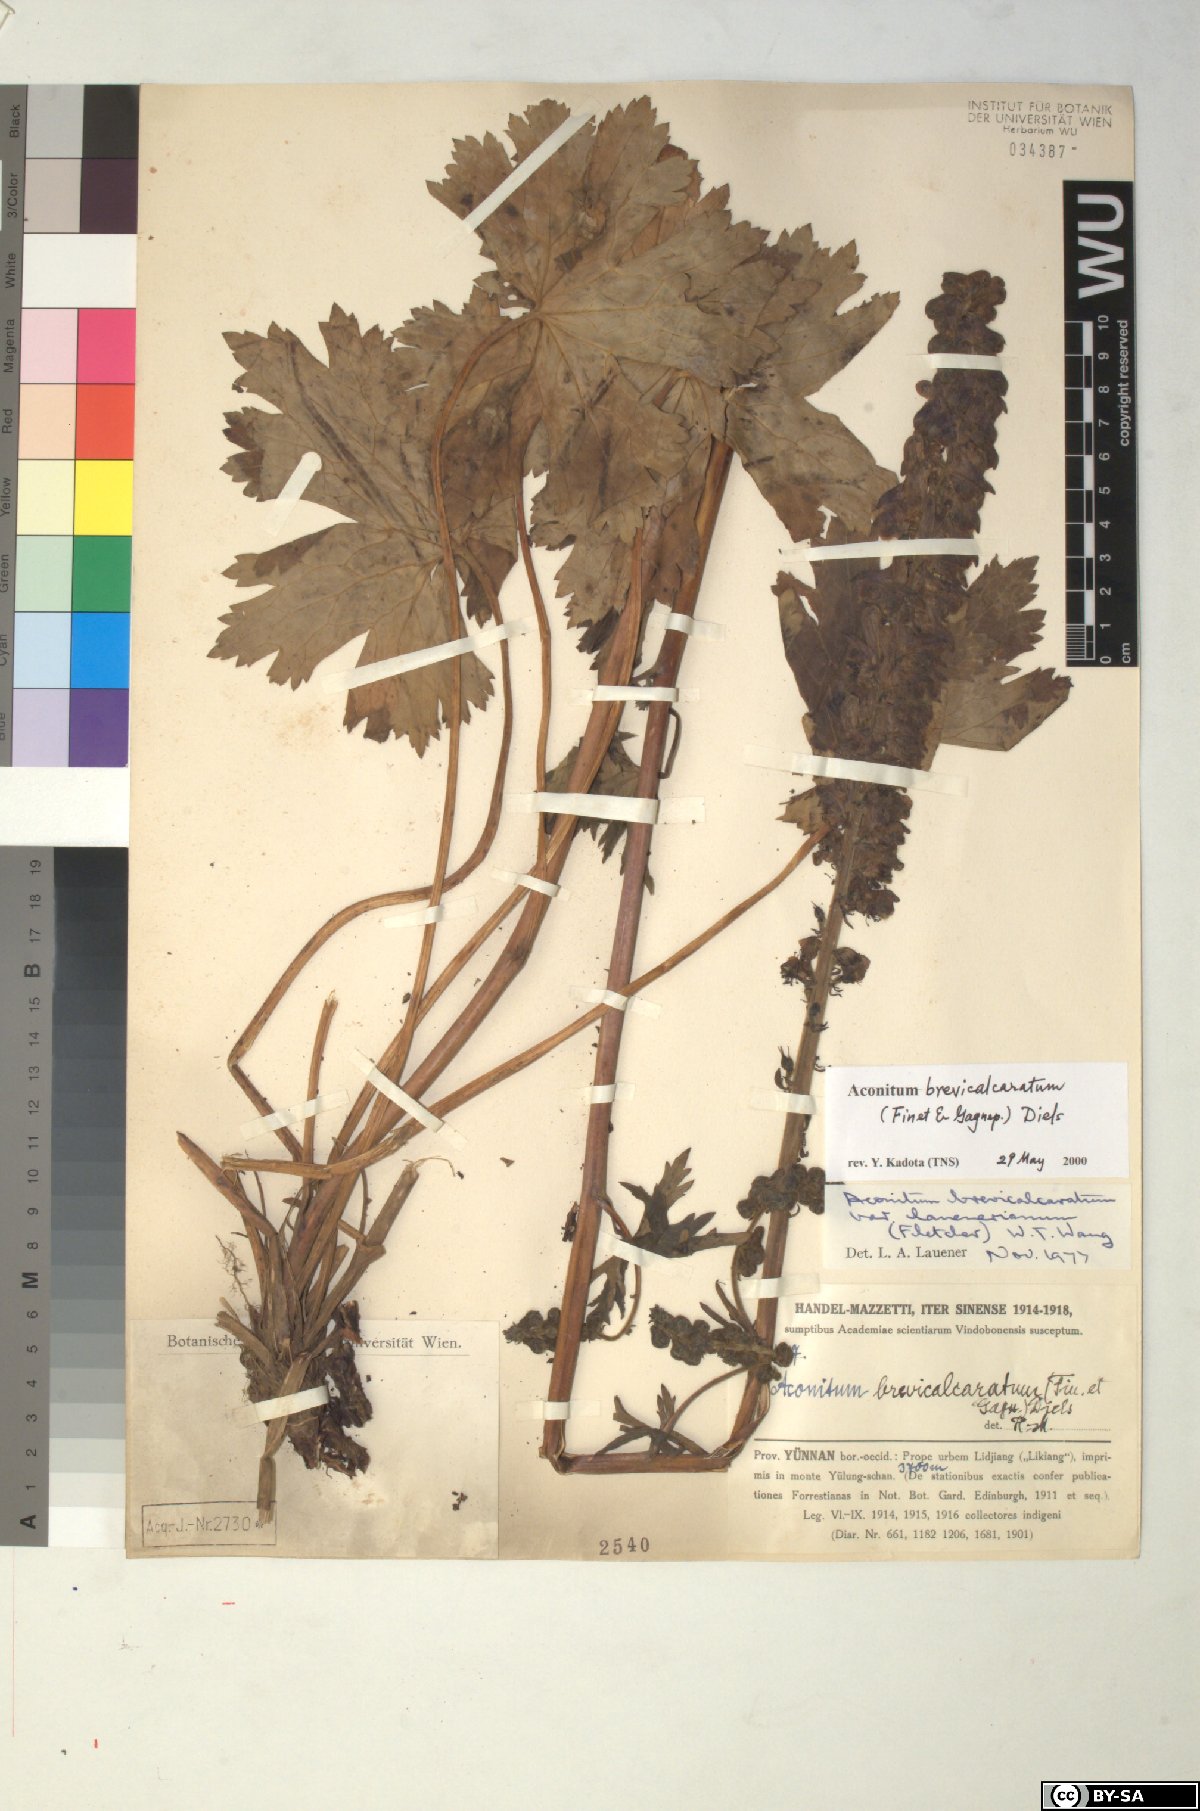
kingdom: Plantae
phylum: Tracheophyta
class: Magnoliopsida
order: Ranunculales
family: Ranunculaceae
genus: Aconitum
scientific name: Aconitum brevicalcaratum
